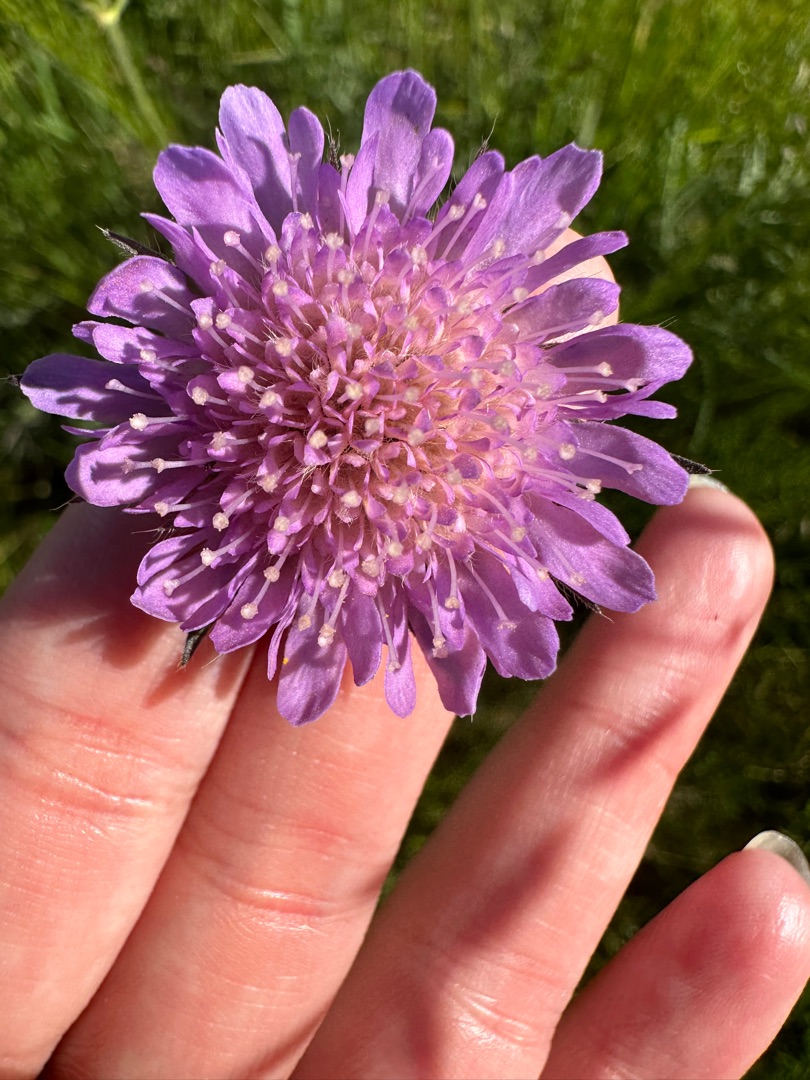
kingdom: Plantae
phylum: Tracheophyta
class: Magnoliopsida
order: Dipsacales
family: Caprifoliaceae
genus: Knautia
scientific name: Knautia arvensis
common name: Blåhat
